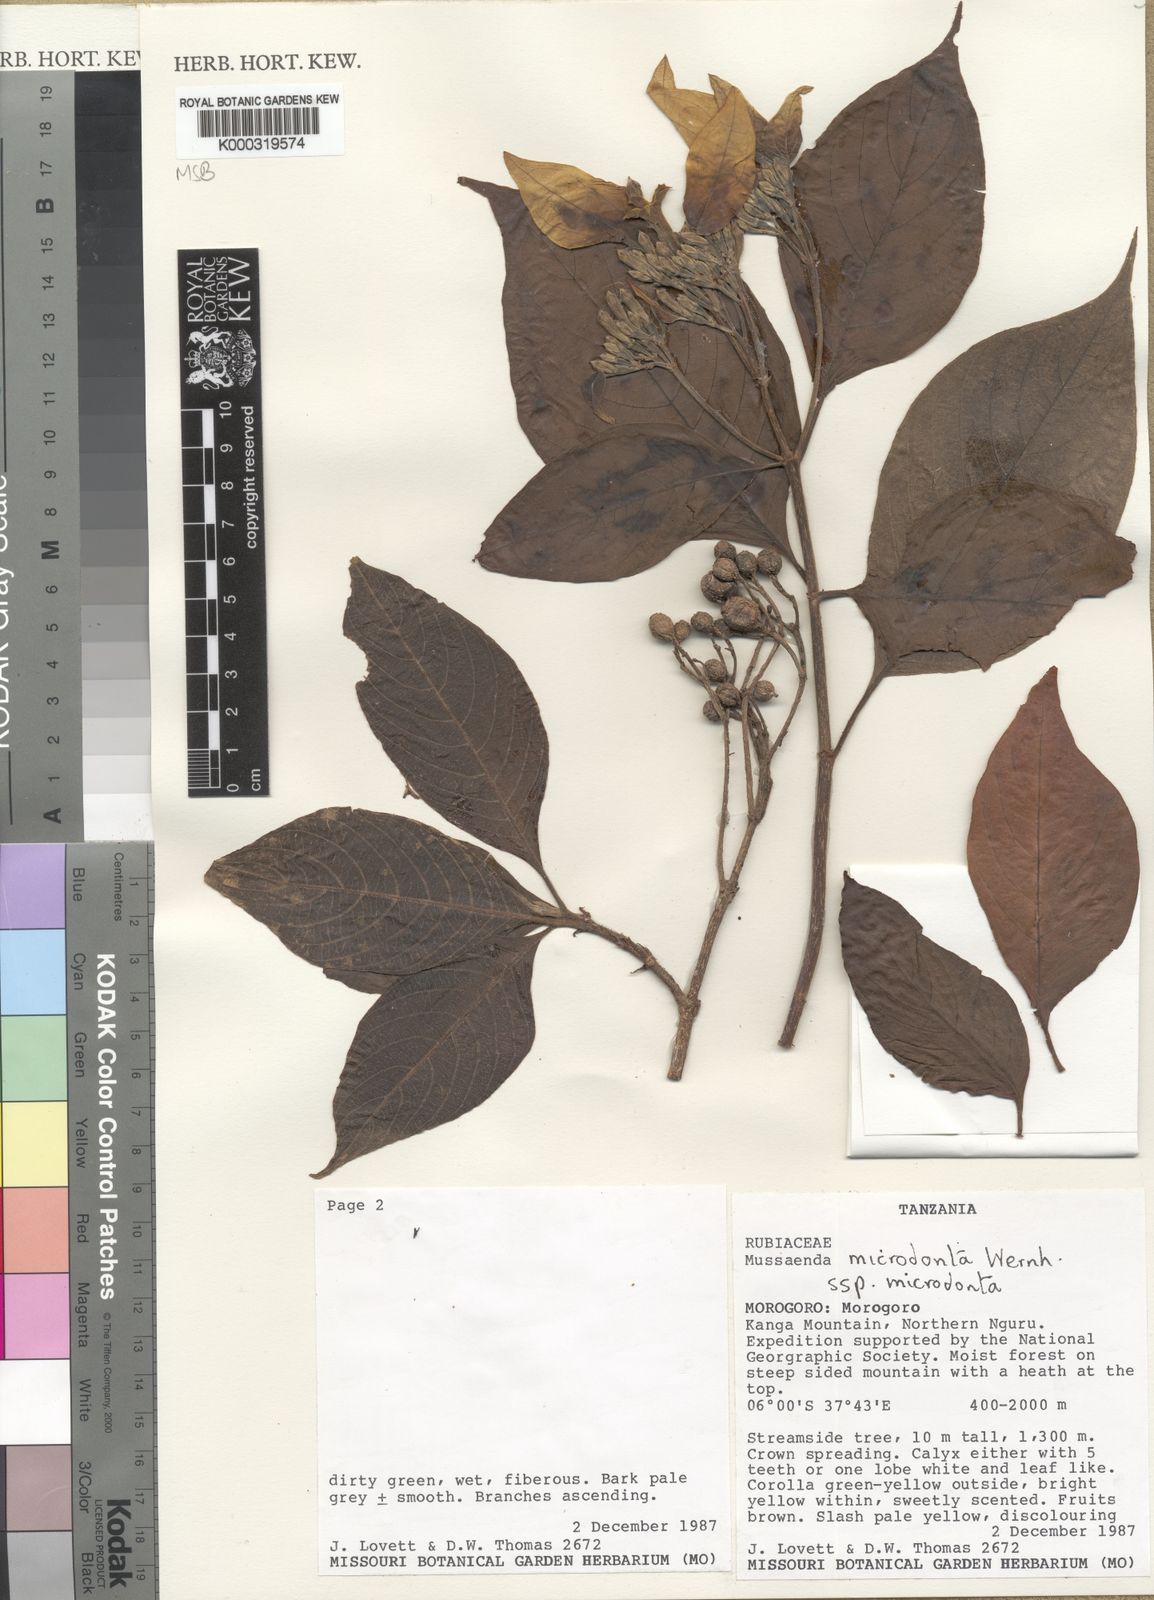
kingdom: Plantae
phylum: Tracheophyta
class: Magnoliopsida
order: Gentianales
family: Rubiaceae
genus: Mussaenda
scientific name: Mussaenda microdonta
